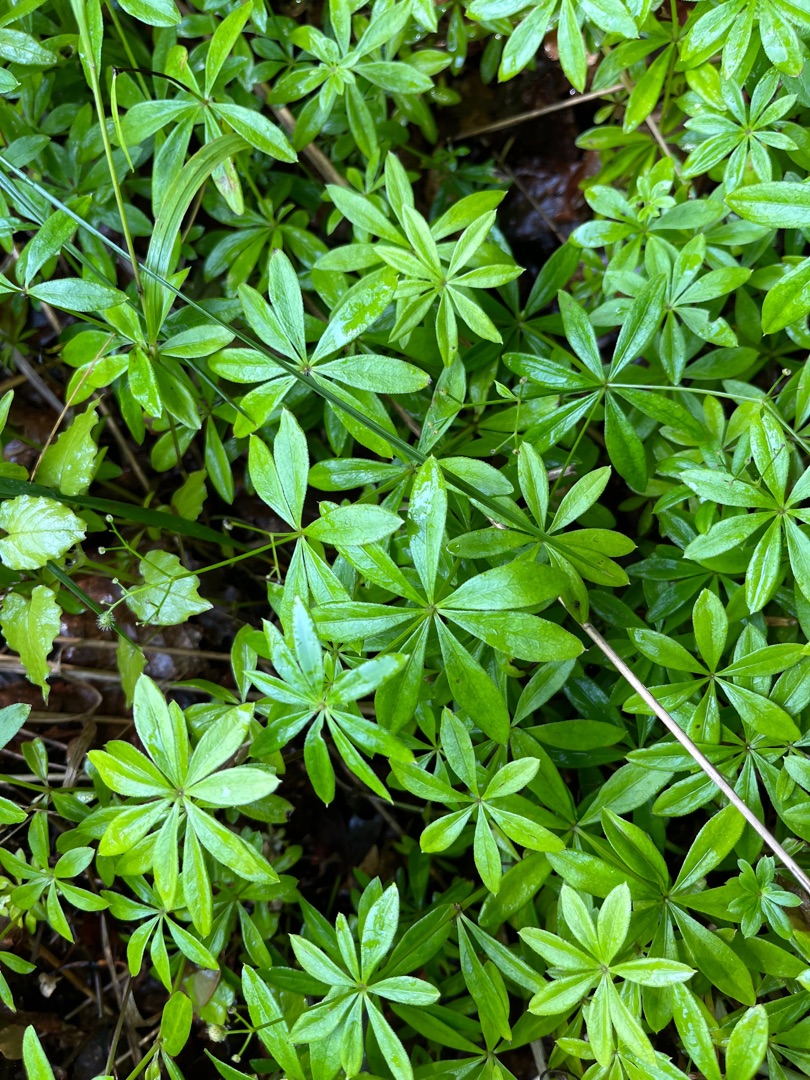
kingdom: Plantae
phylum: Tracheophyta
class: Magnoliopsida
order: Gentianales
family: Rubiaceae
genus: Galium
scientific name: Galium odoratum
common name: Skovmærke
